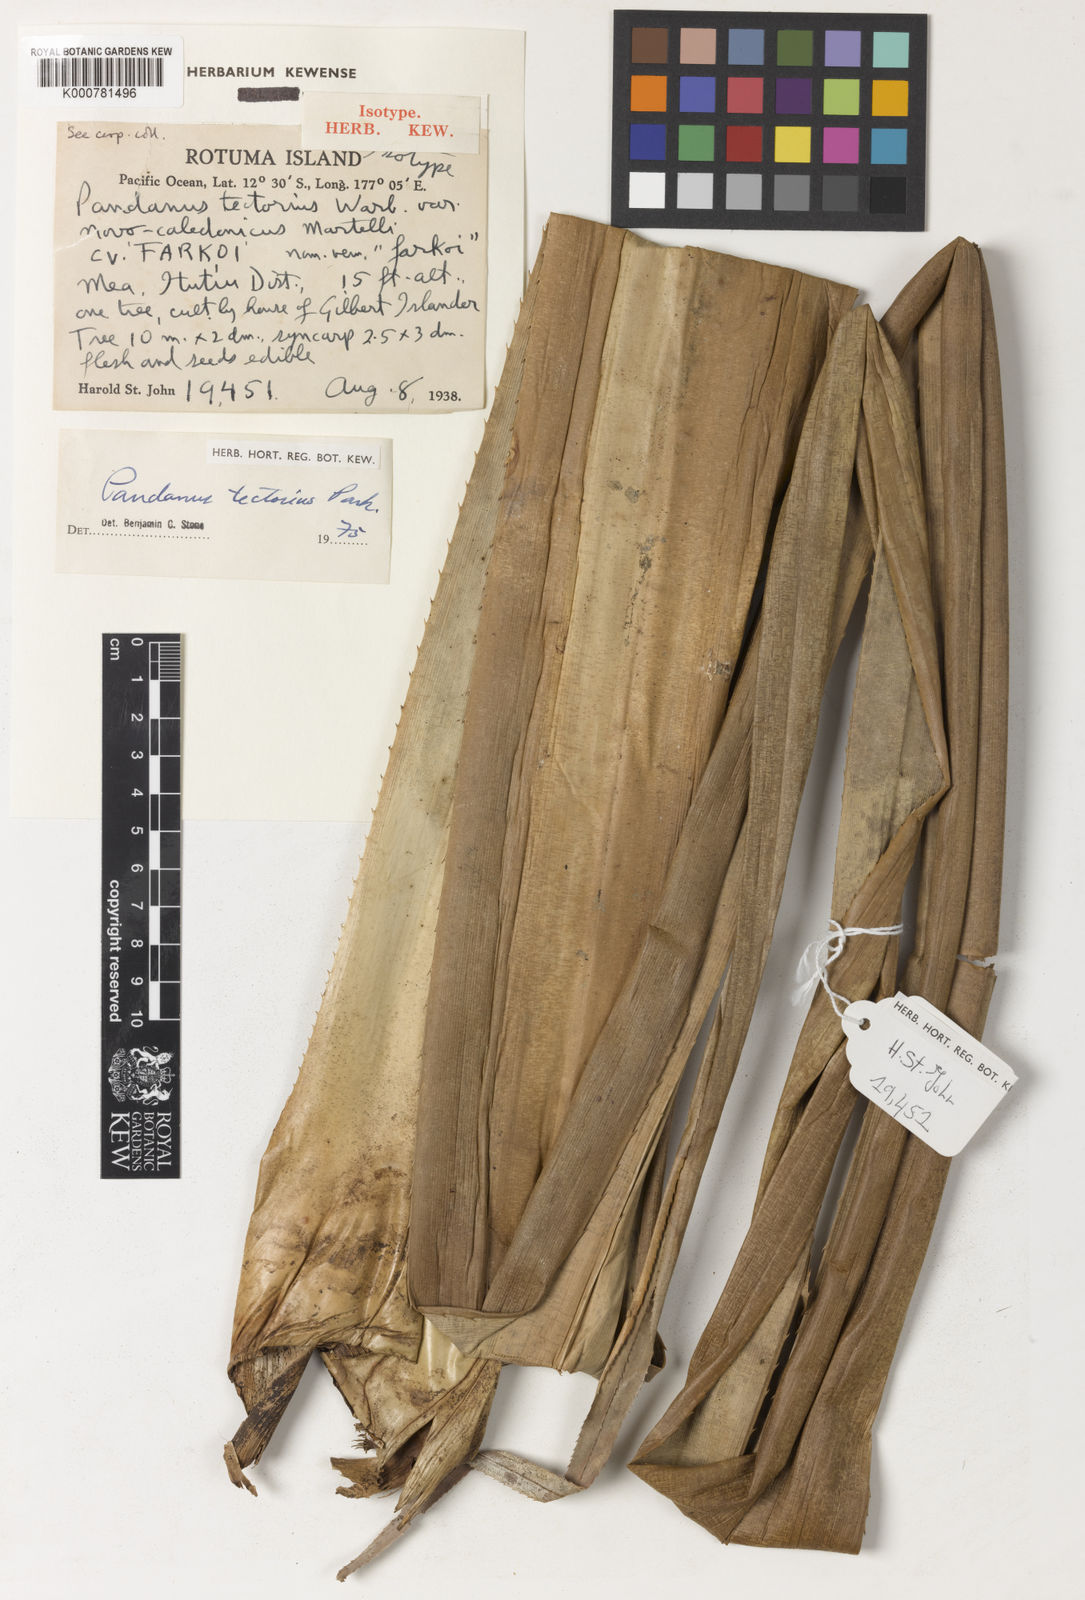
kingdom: Plantae
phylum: Tracheophyta
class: Liliopsida
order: Pandanales
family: Pandanaceae
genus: Pandanus
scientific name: Pandanus
